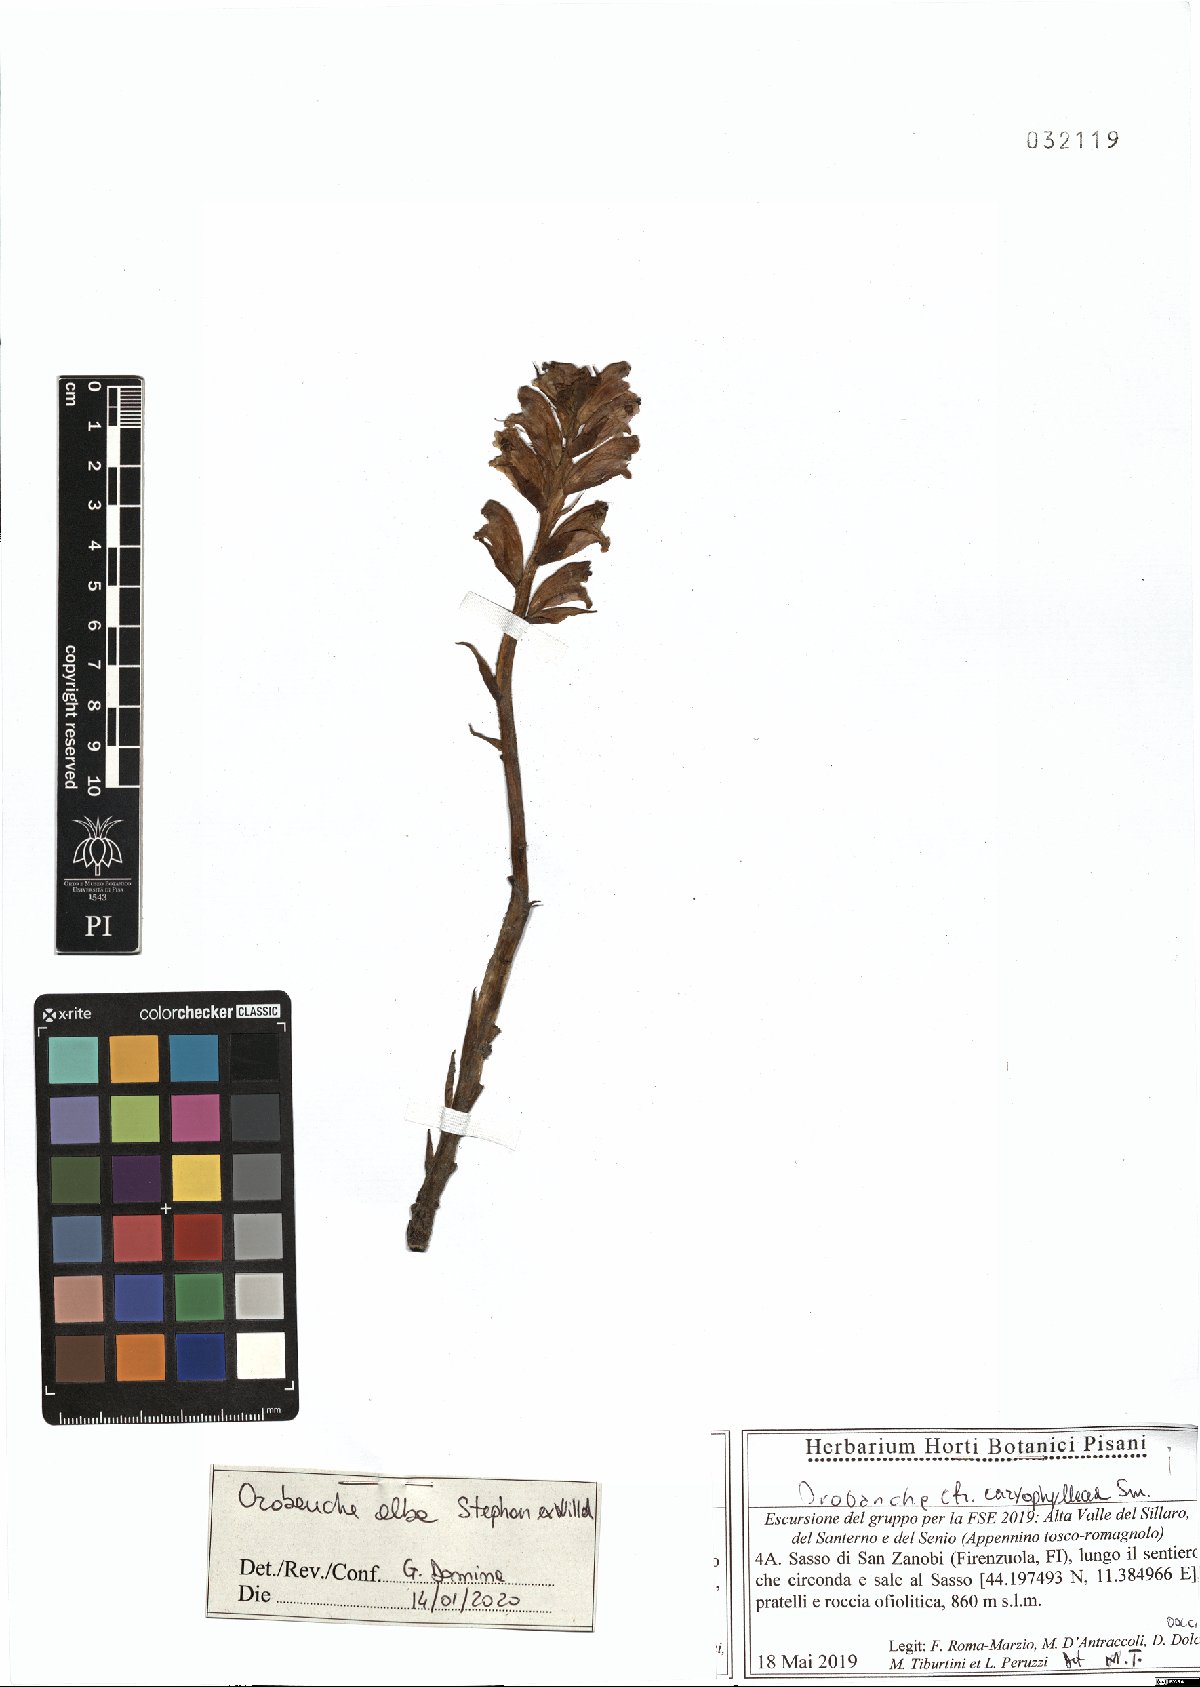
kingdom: Plantae
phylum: Tracheophyta
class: Magnoliopsida
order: Lamiales
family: Orobanchaceae
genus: Orobanche
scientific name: Orobanche alba
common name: Thyme broomrape
